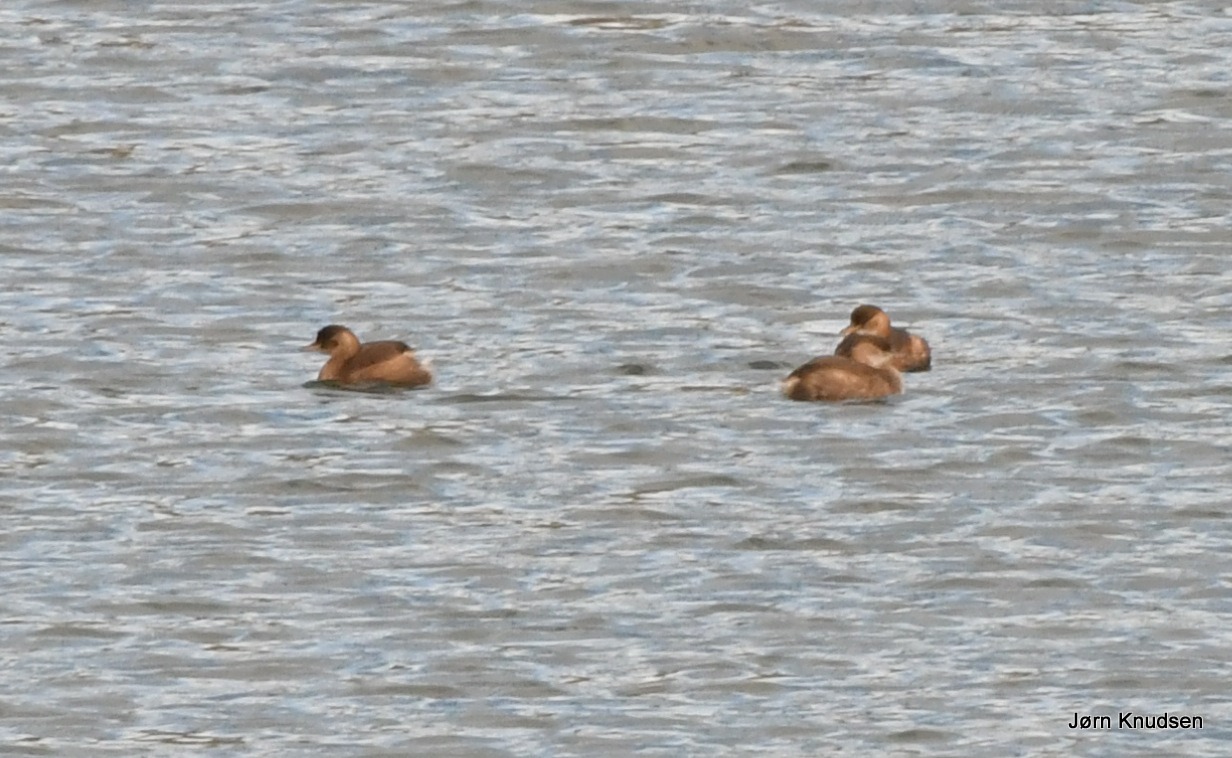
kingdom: Animalia
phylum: Chordata
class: Aves
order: Podicipediformes
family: Podicipedidae
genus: Tachybaptus
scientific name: Tachybaptus ruficollis
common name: Lille lappedykker
